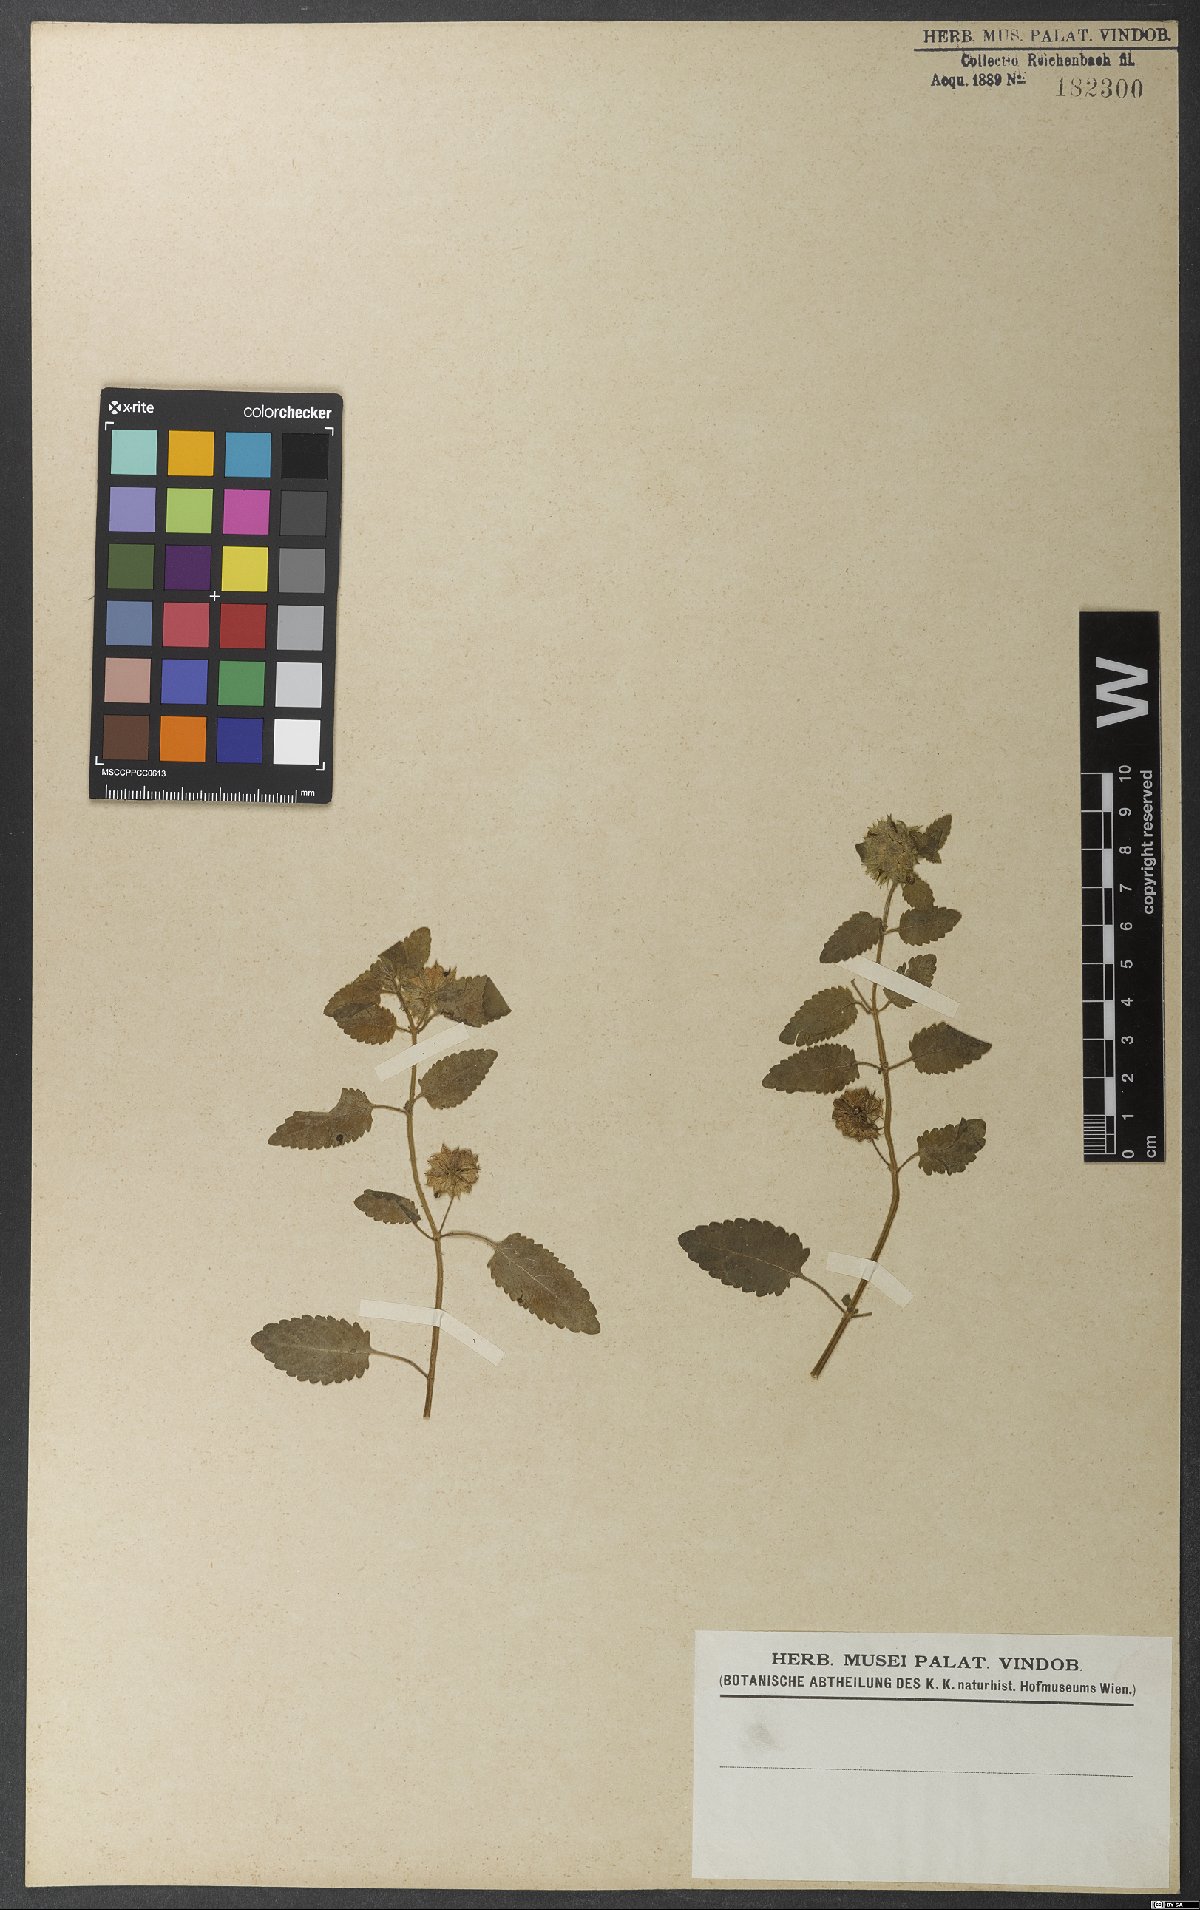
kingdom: Plantae
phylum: Tracheophyta
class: Magnoliopsida
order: Lamiales
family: Lamiaceae
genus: Marsypianthes
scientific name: Marsypianthes chamaedrys
